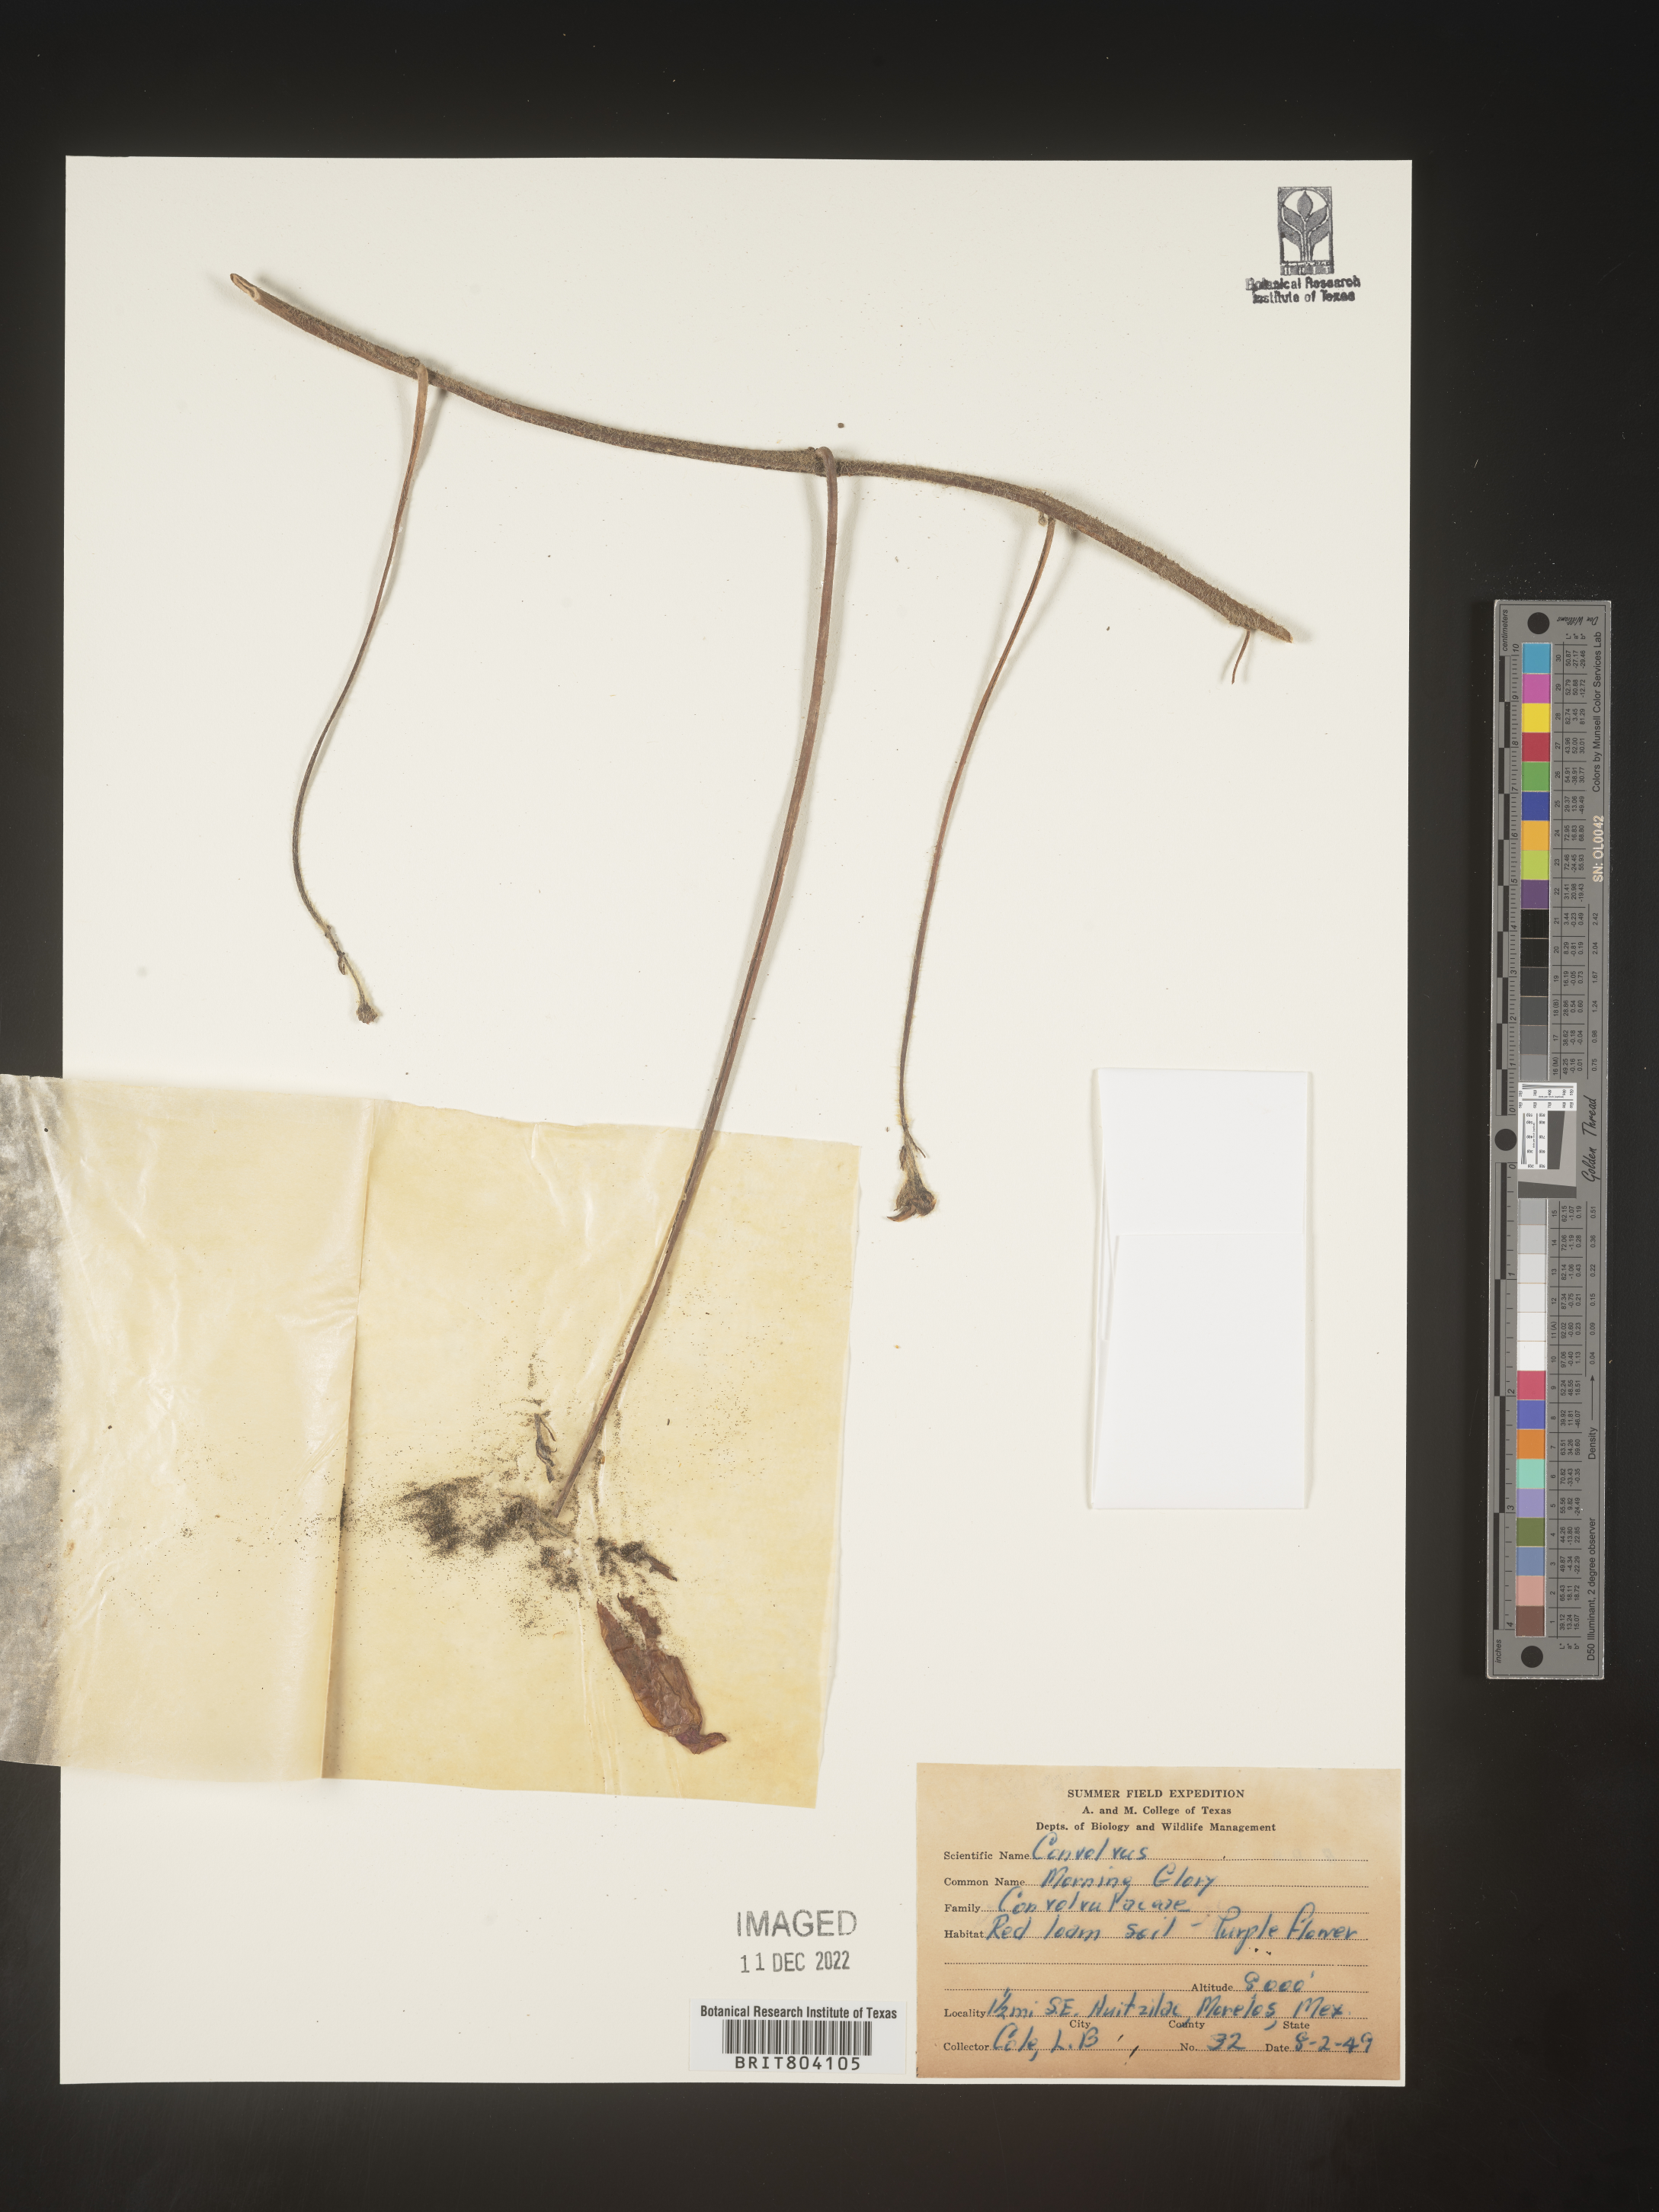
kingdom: Plantae
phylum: Tracheophyta
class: Magnoliopsida
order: Solanales
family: Convolvulaceae
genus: Convolvulus
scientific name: Convolvulus
